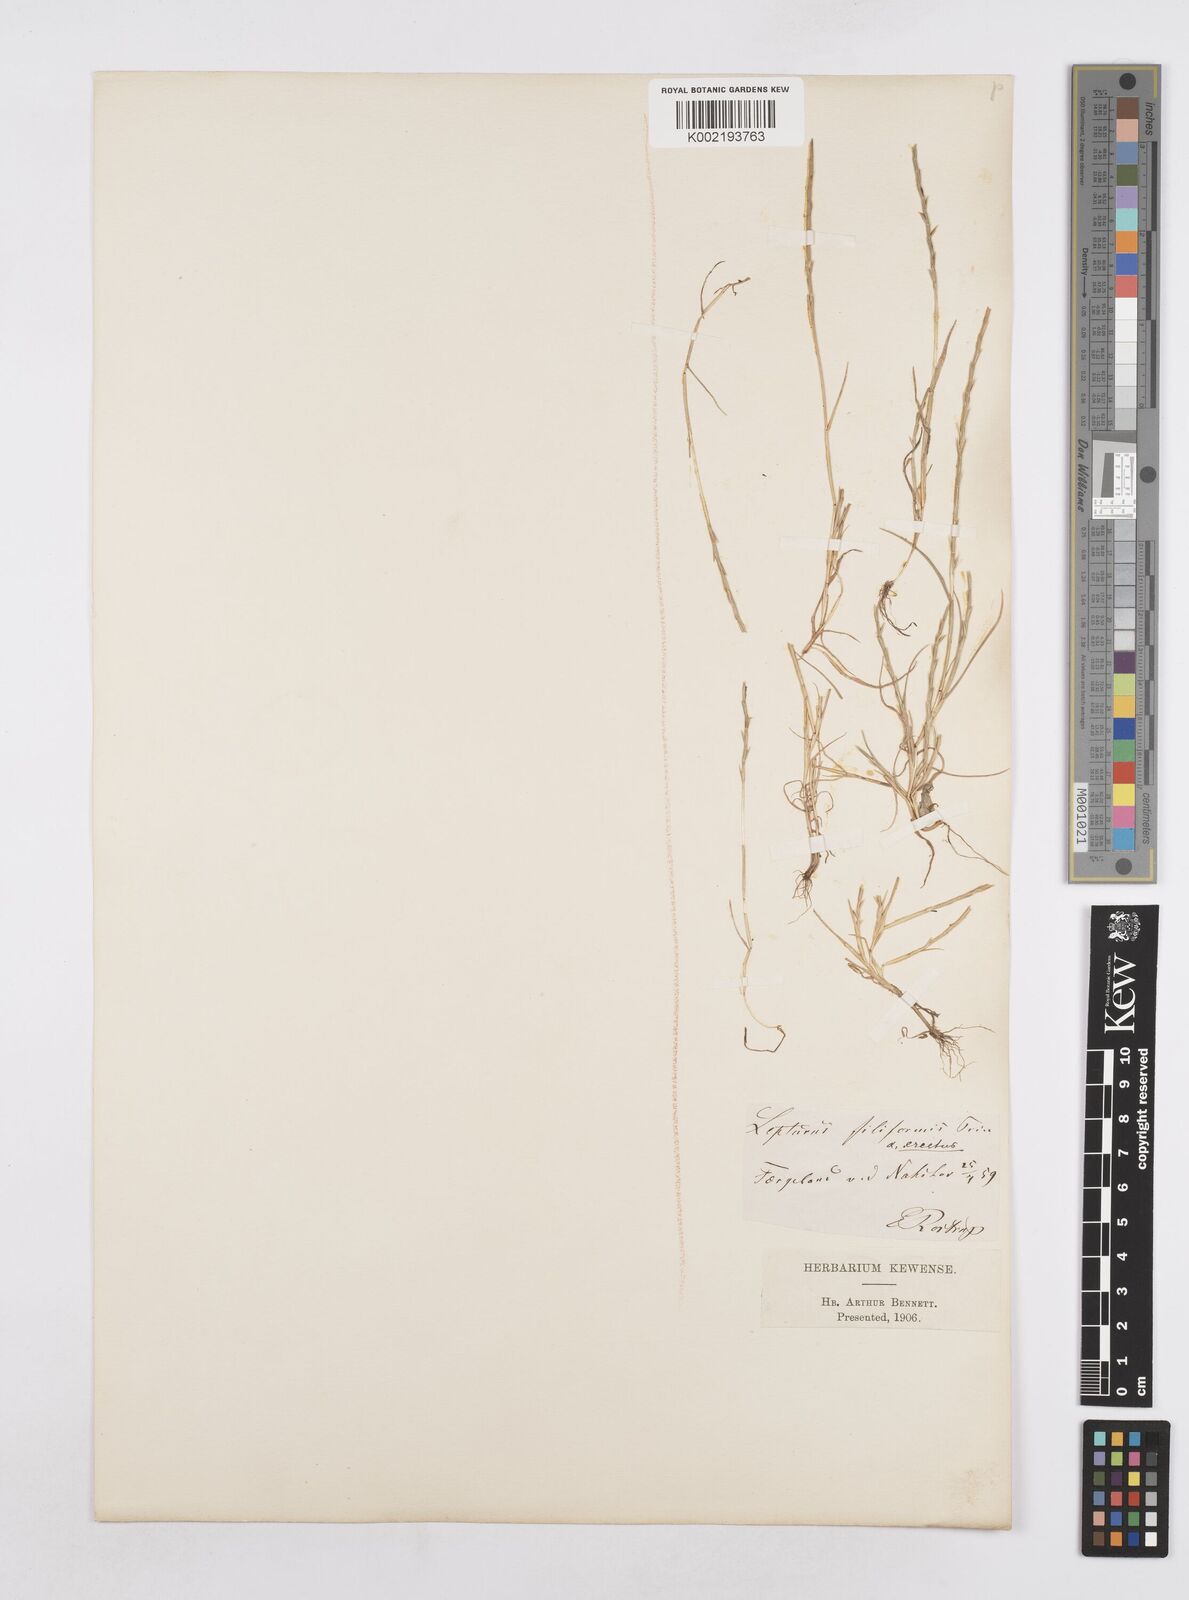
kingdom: Plantae
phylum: Tracheophyta
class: Liliopsida
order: Poales
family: Poaceae
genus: Parapholis
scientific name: Parapholis
